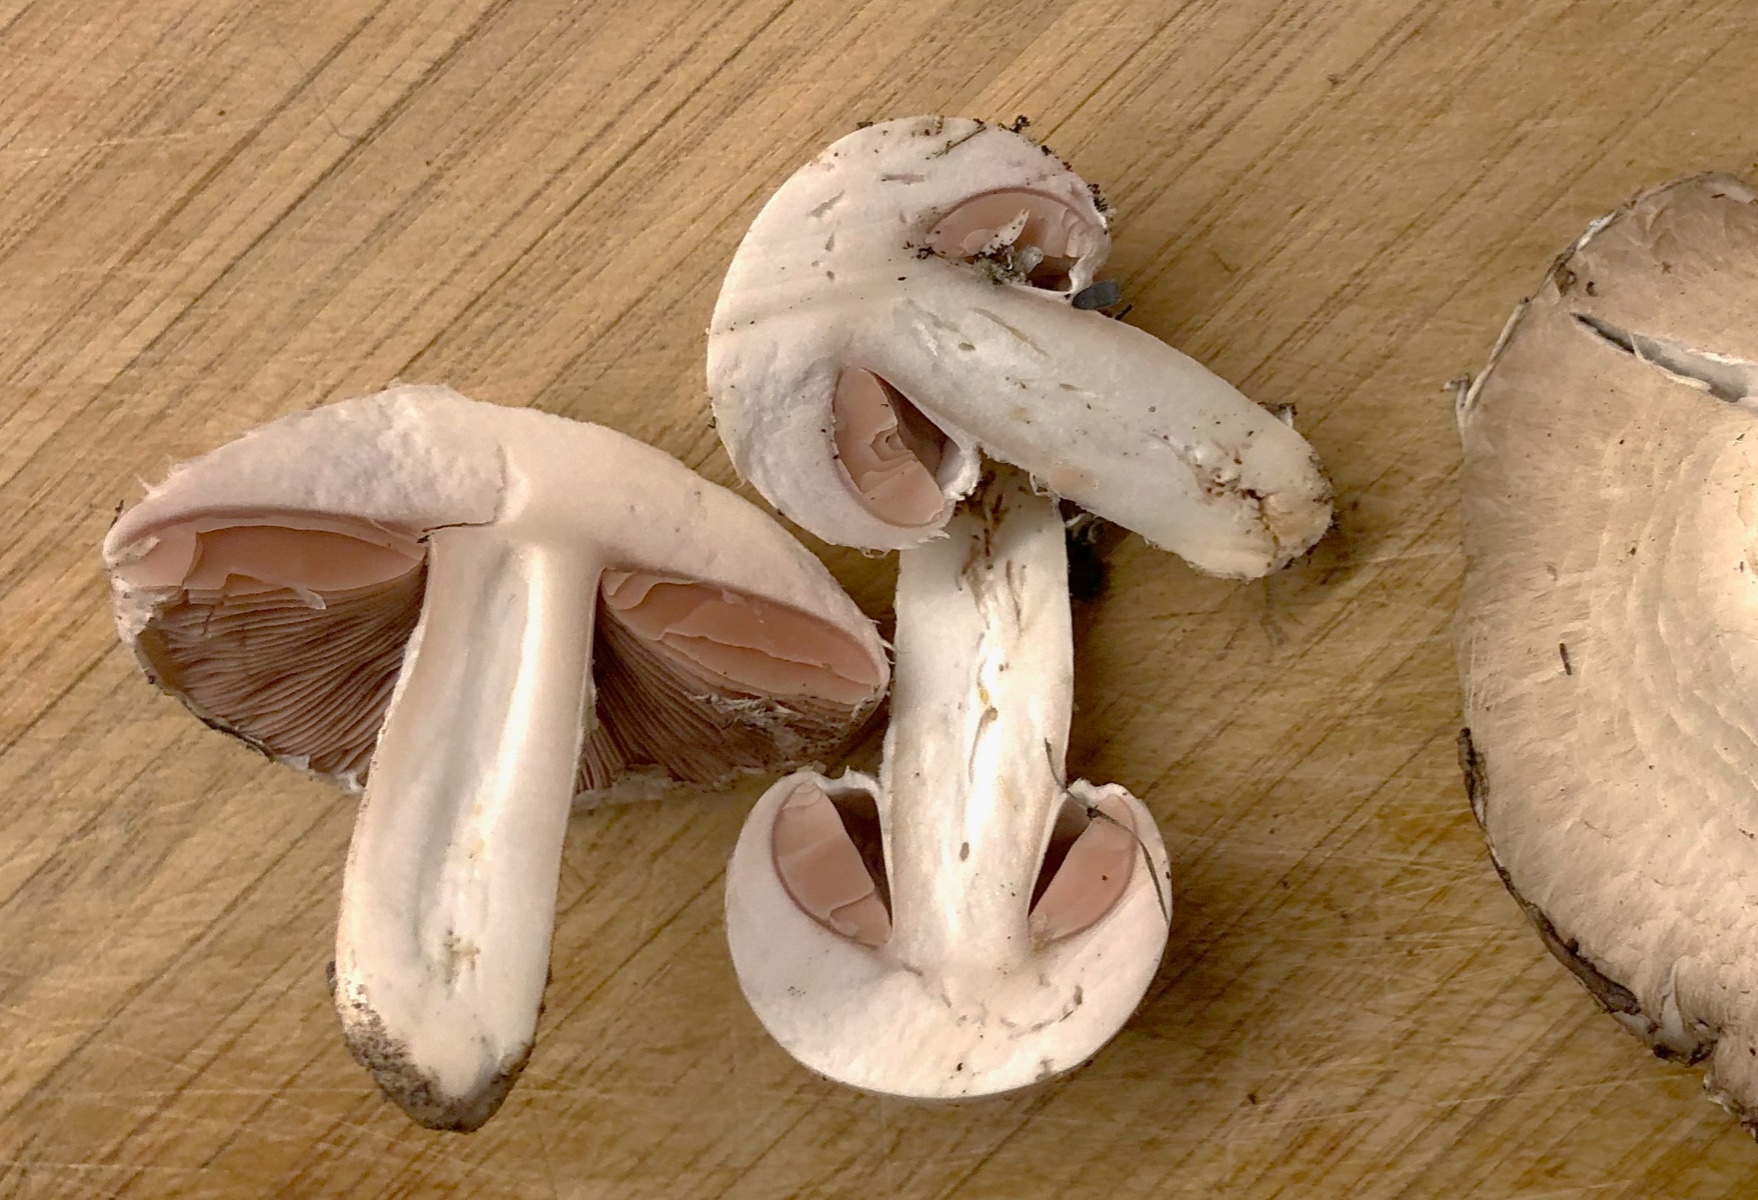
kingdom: Fungi
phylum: Basidiomycota
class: Agaricomycetes
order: Agaricales
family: Agaricaceae
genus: Agaricus
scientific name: Agaricus
